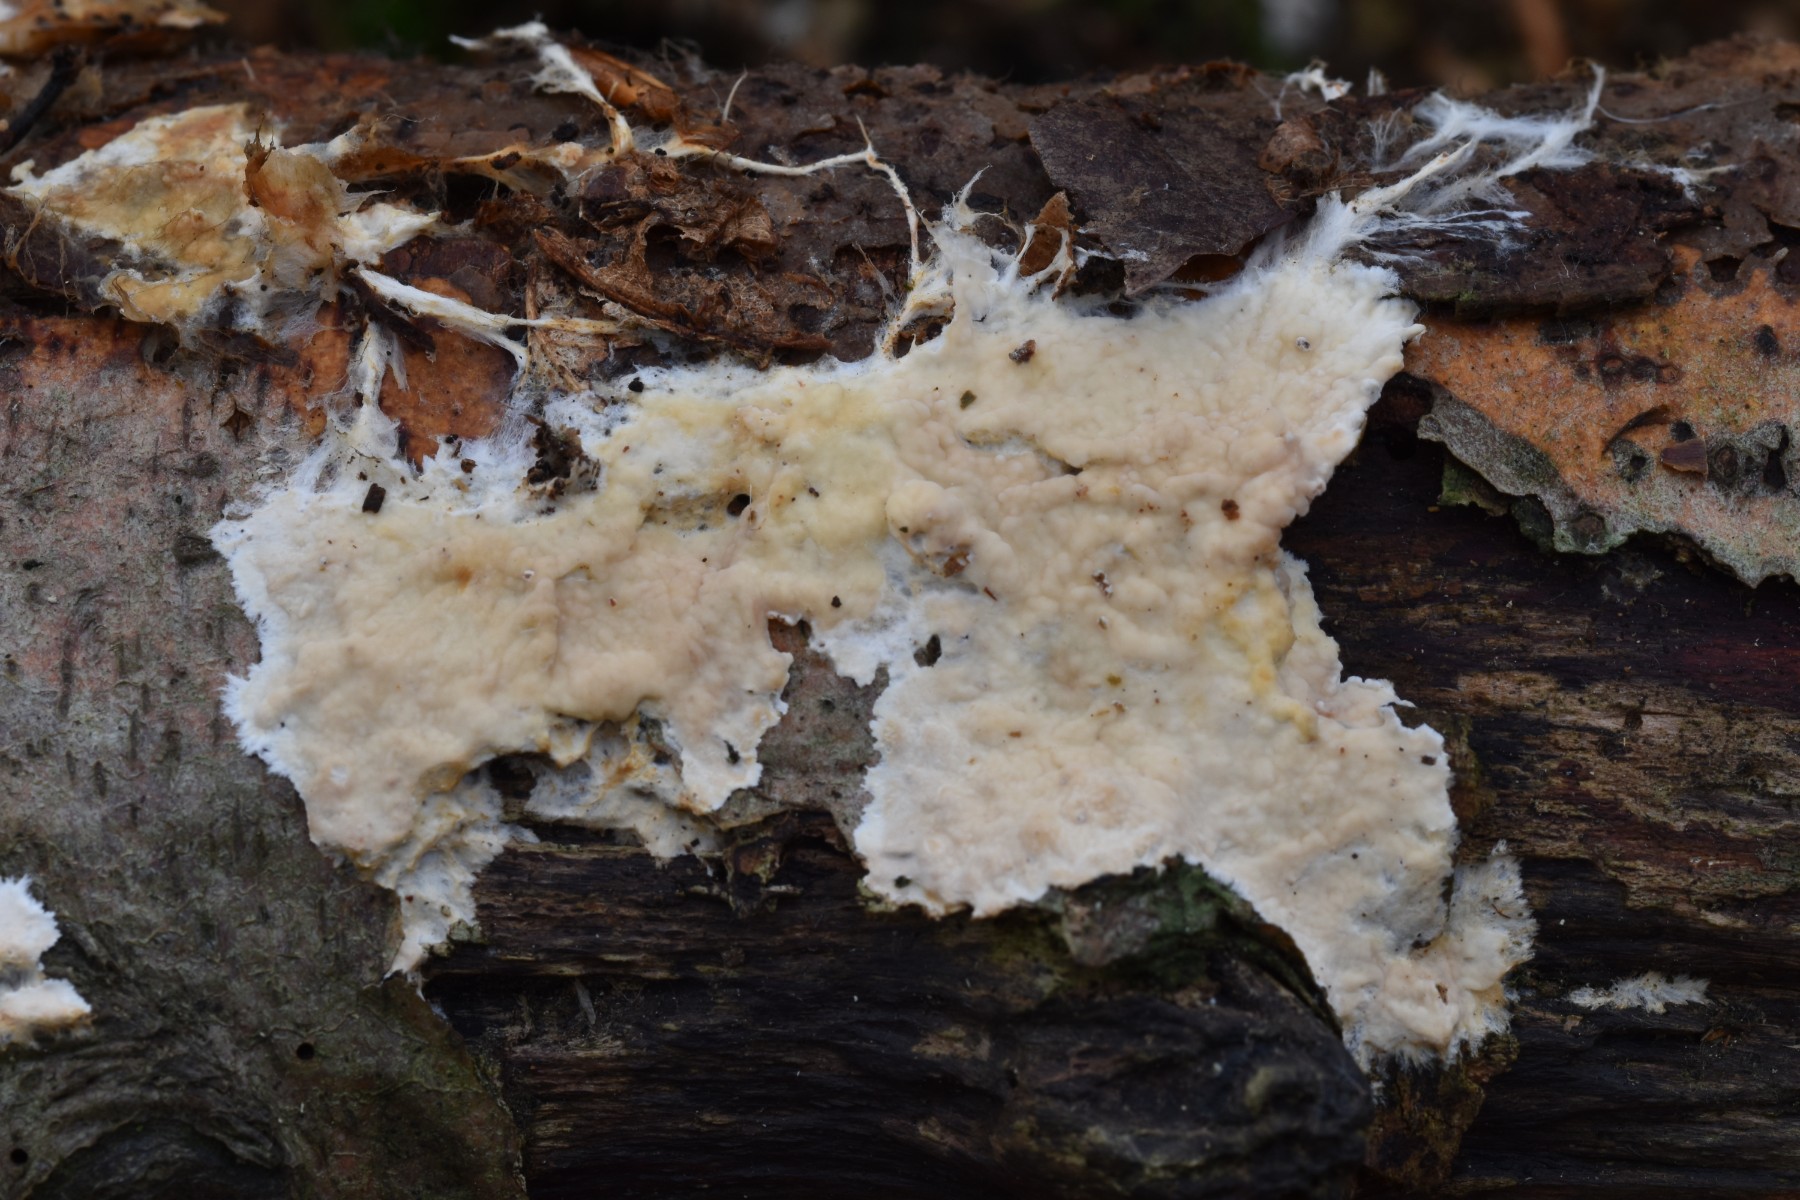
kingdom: Fungi
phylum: Basidiomycota
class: Agaricomycetes
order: Polyporales
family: Phanerochaetaceae
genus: Phanerochaete
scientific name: Phanerochaete velutina
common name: dunet randtråd
